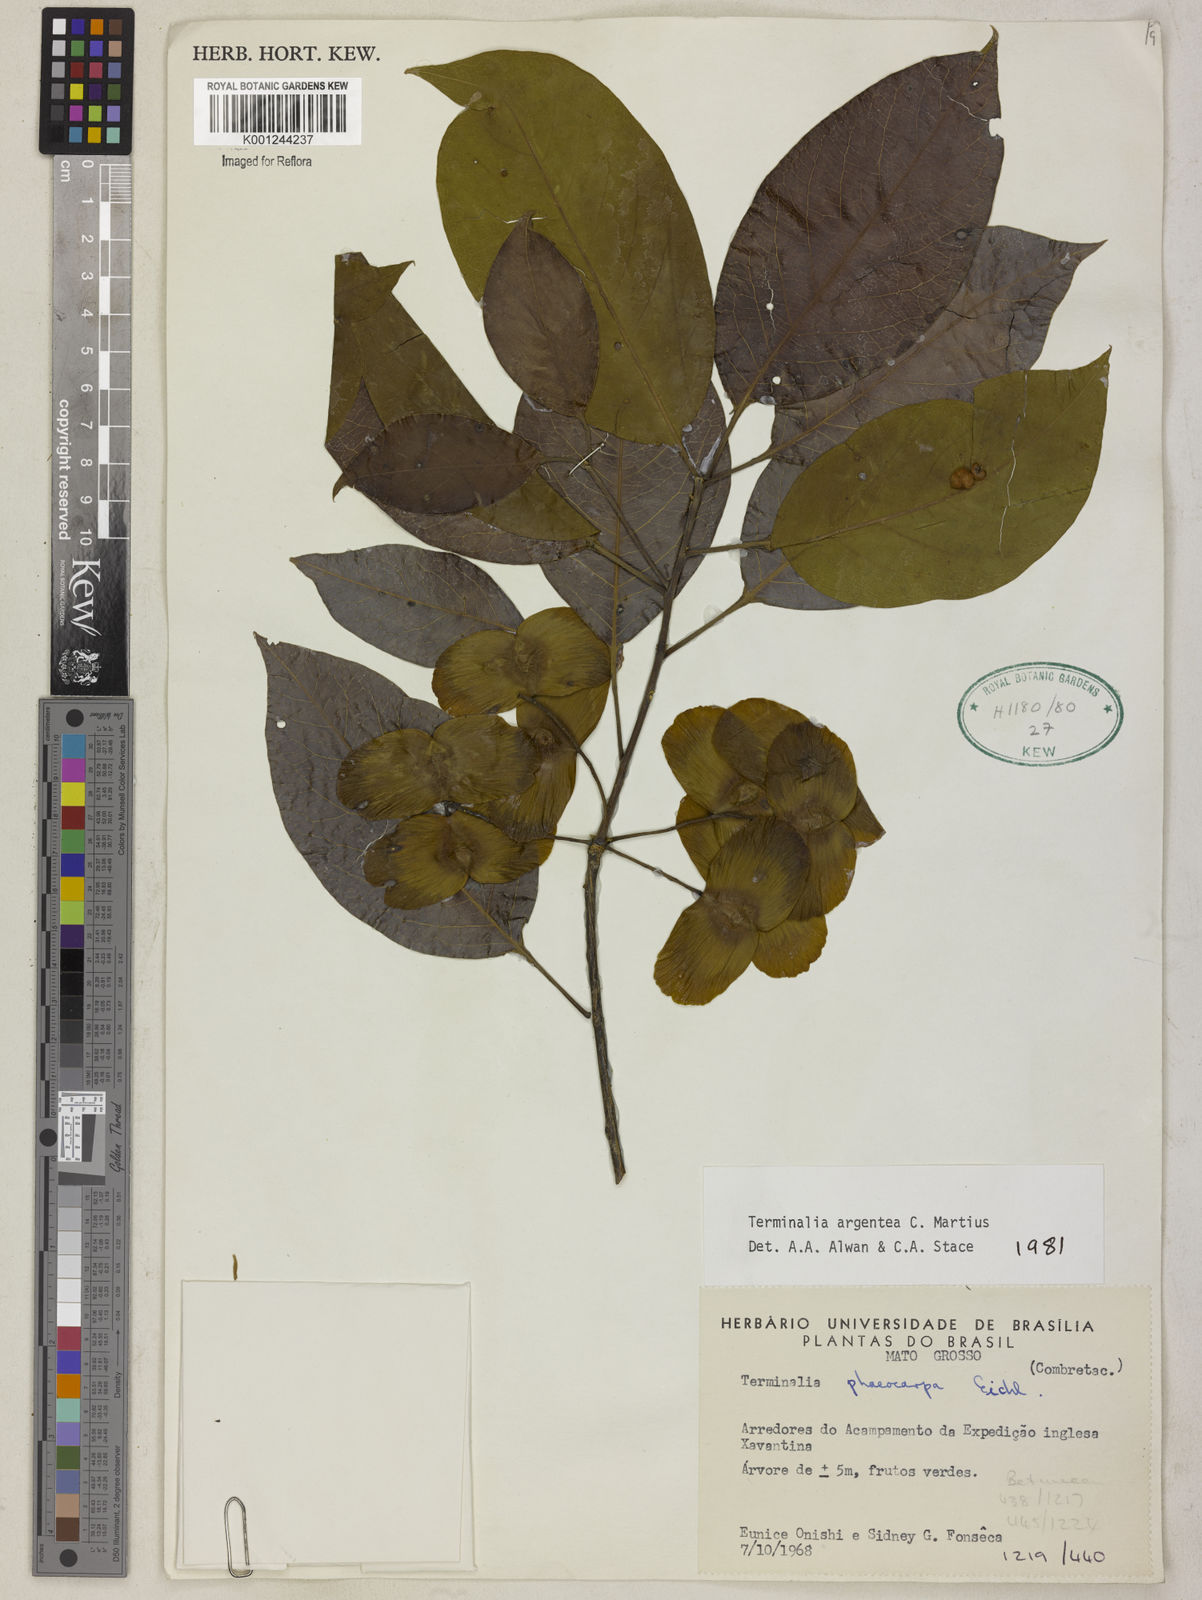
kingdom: Plantae
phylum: Tracheophyta
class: Magnoliopsida
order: Myrtales
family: Combretaceae
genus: Terminalia
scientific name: Terminalia argentea
